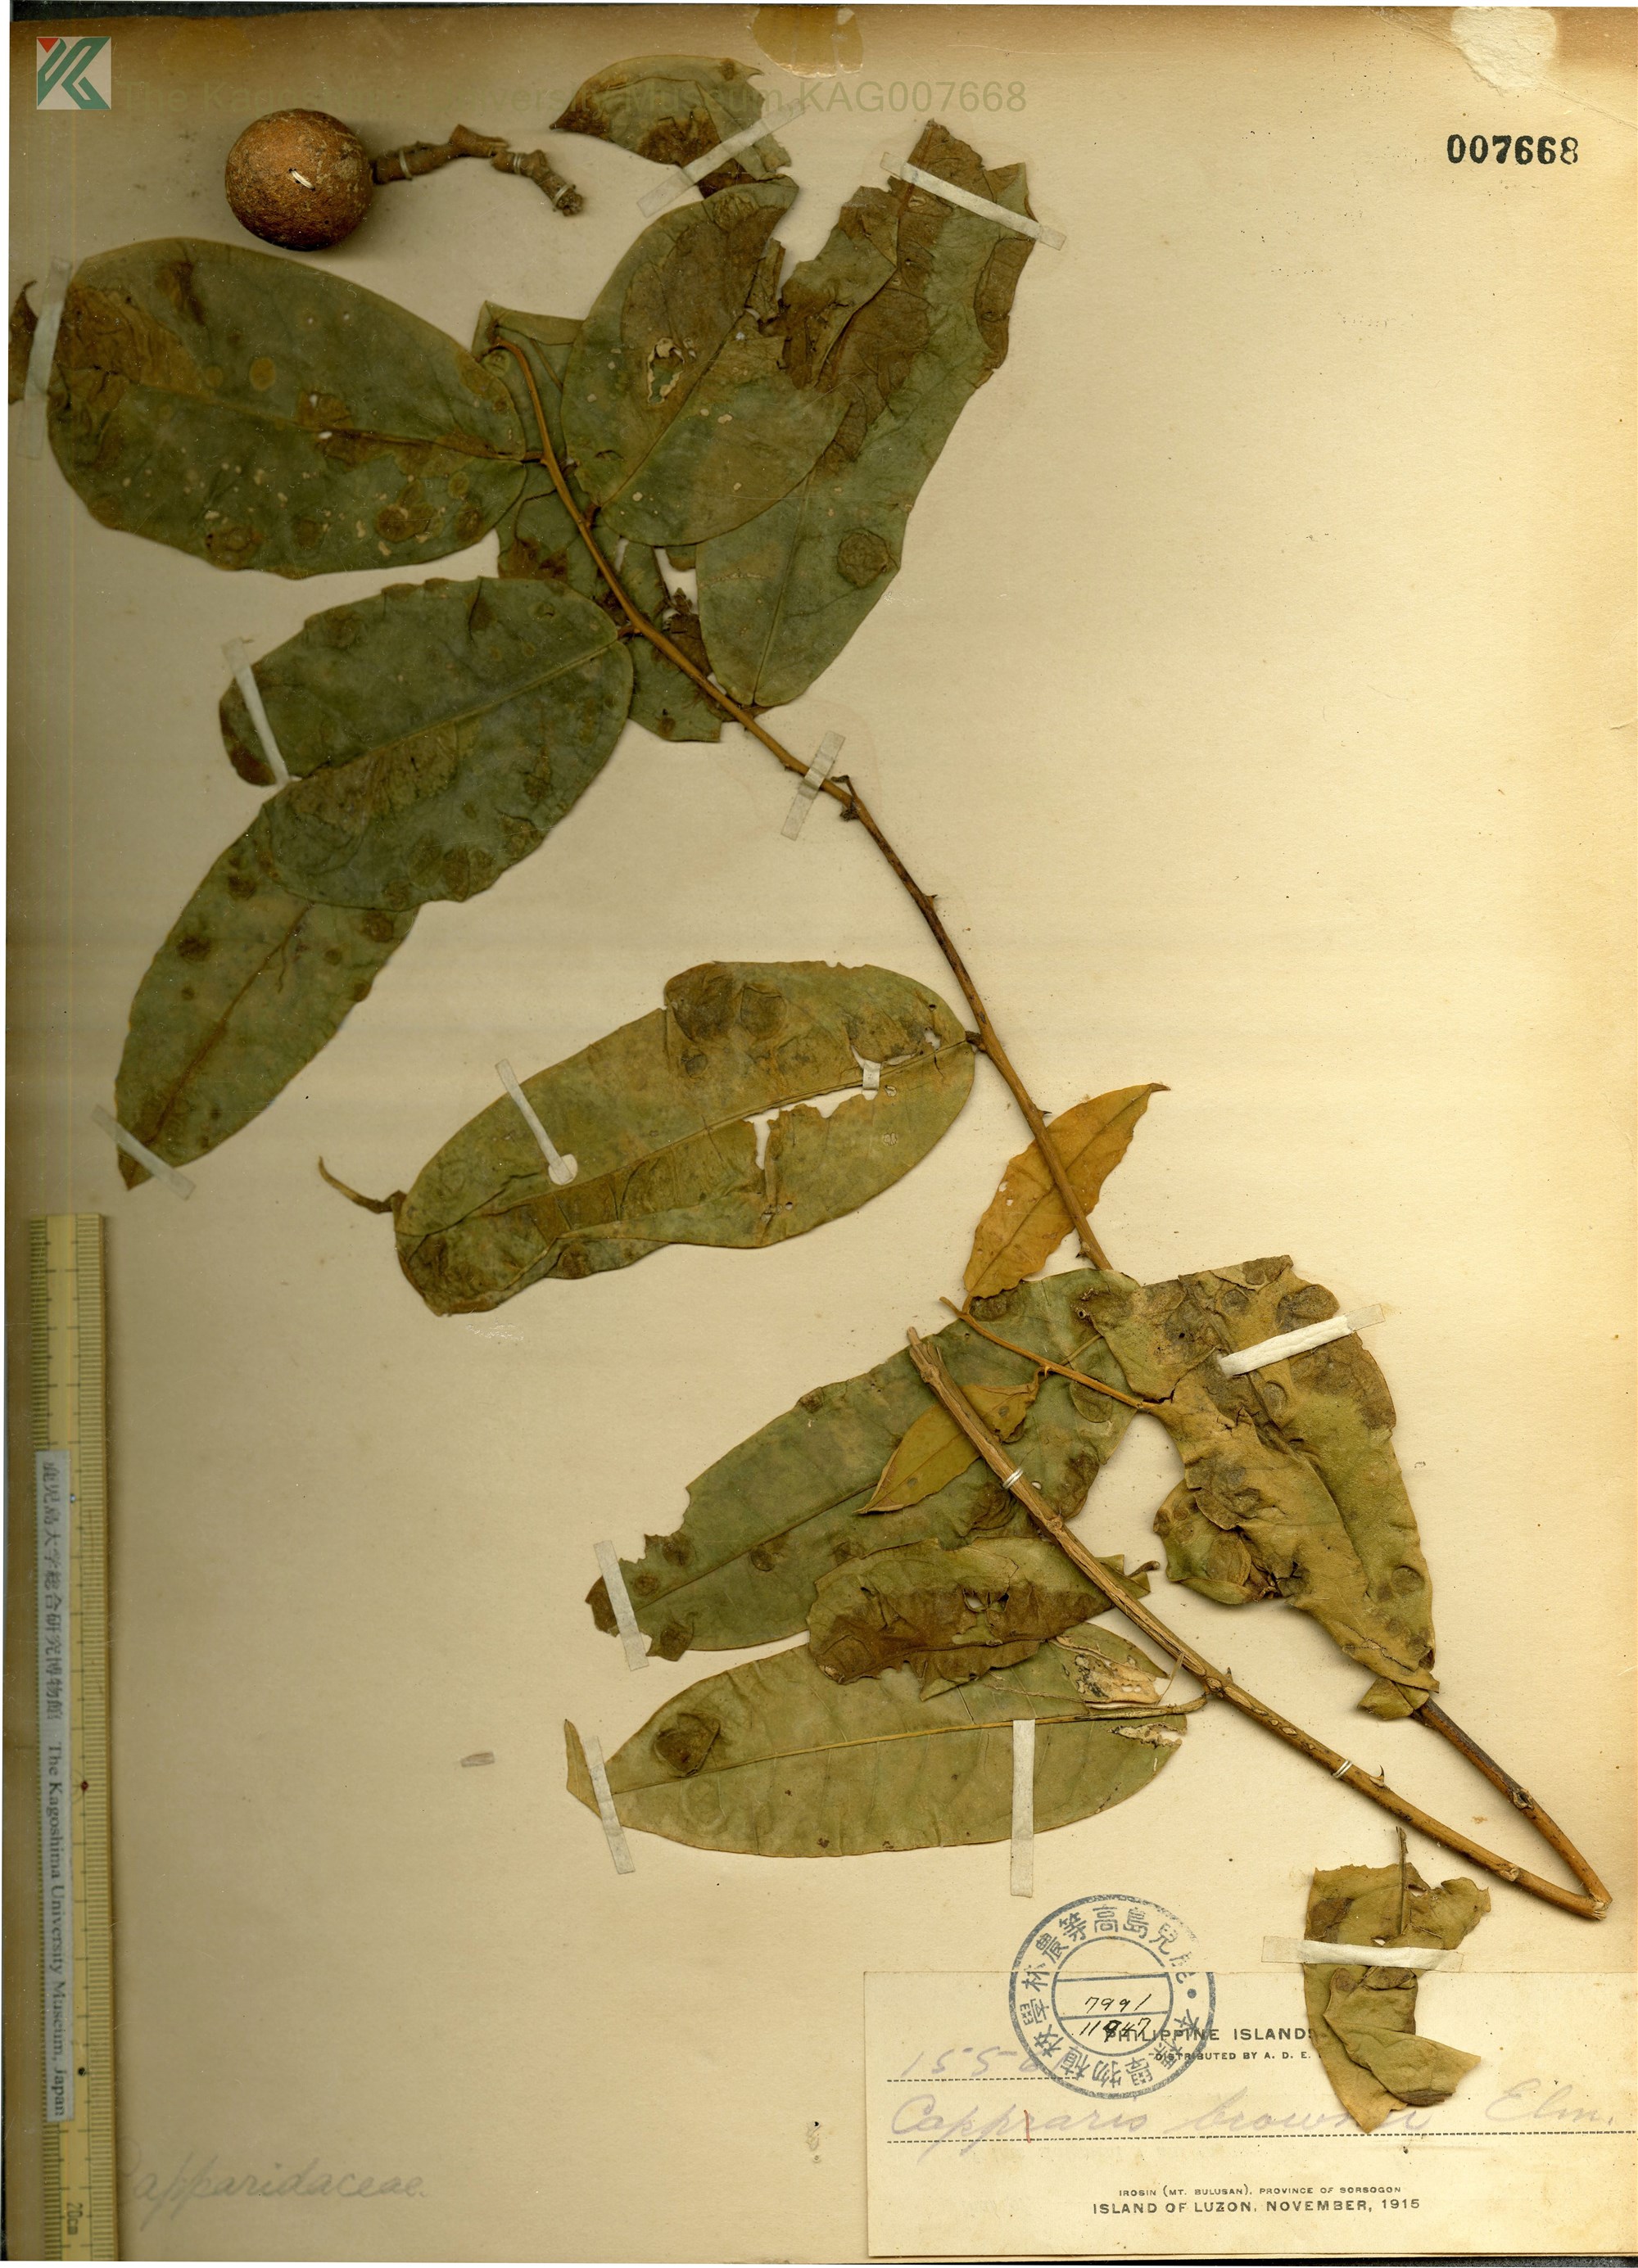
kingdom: Plantae
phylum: Tracheophyta
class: Magnoliopsida
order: Brassicales
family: Capparaceae
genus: Capparis
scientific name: Capparis lanceolaris
